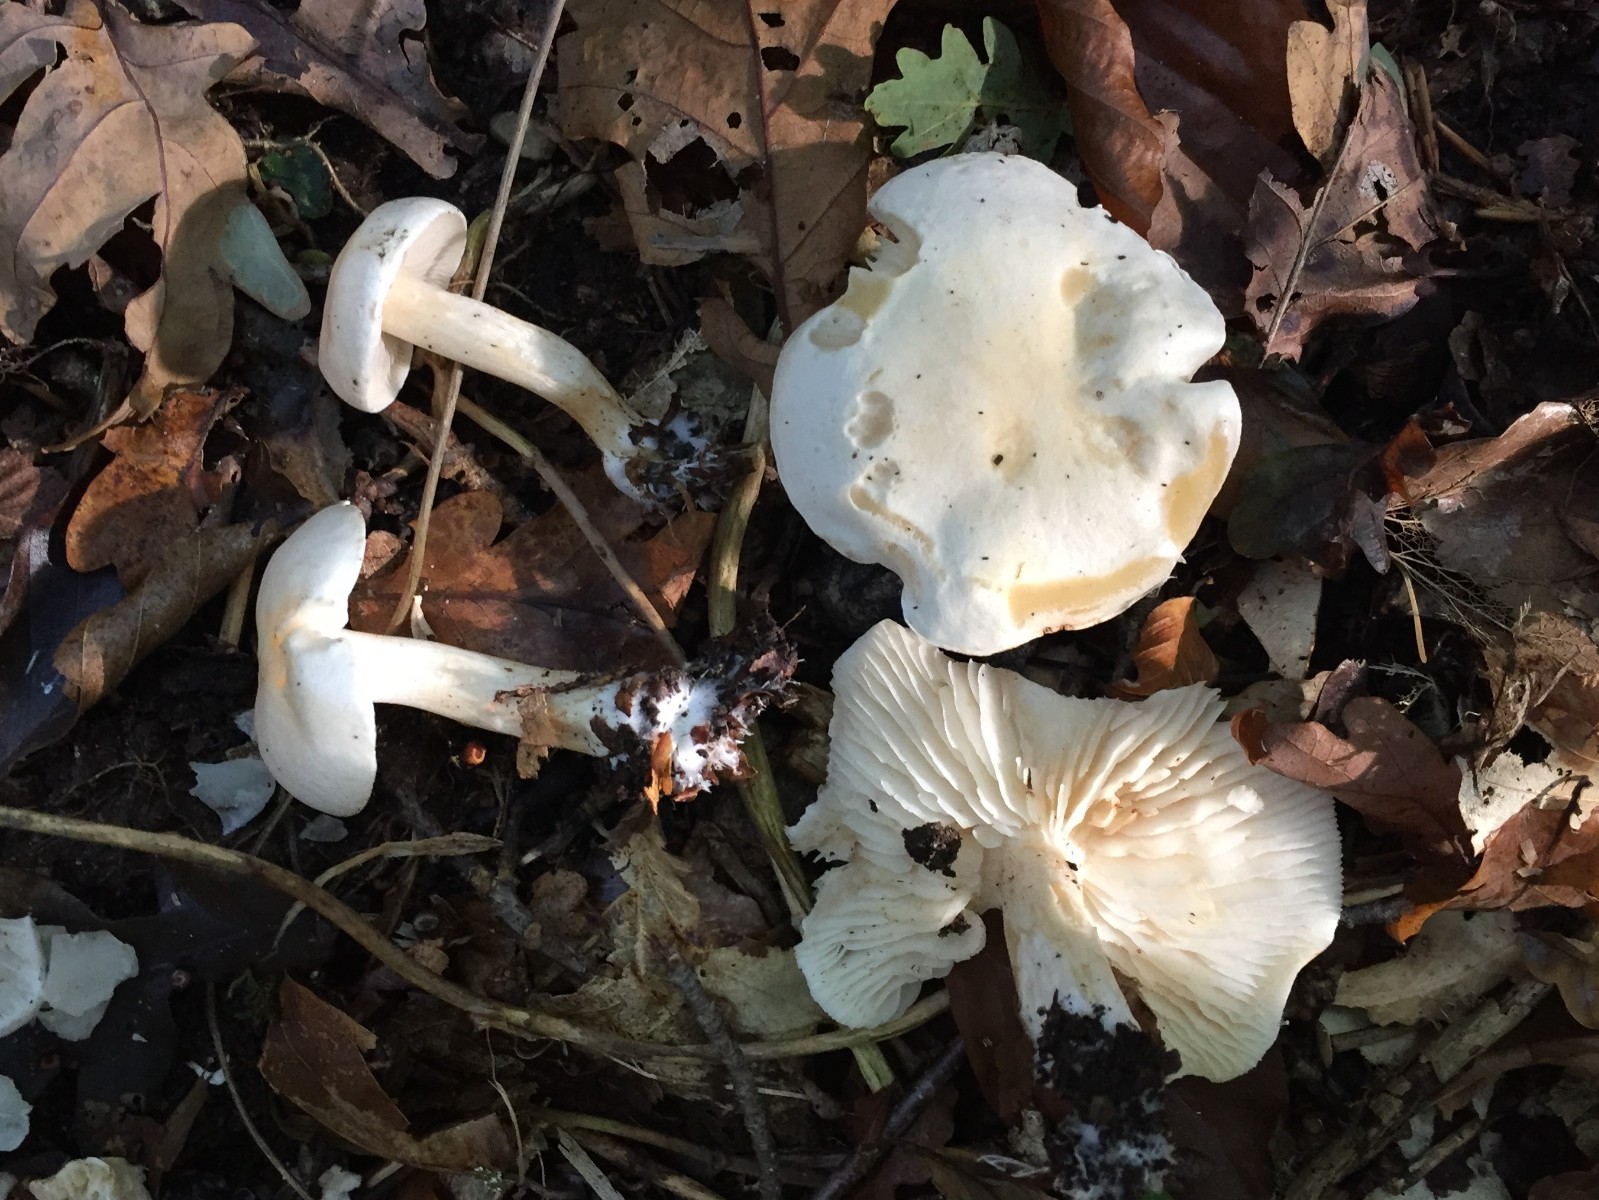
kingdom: Fungi
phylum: Basidiomycota
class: Agaricomycetes
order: Agaricales
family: Tricholomataceae
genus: Tricholoma
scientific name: Tricholoma album
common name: honning-ridderhat
